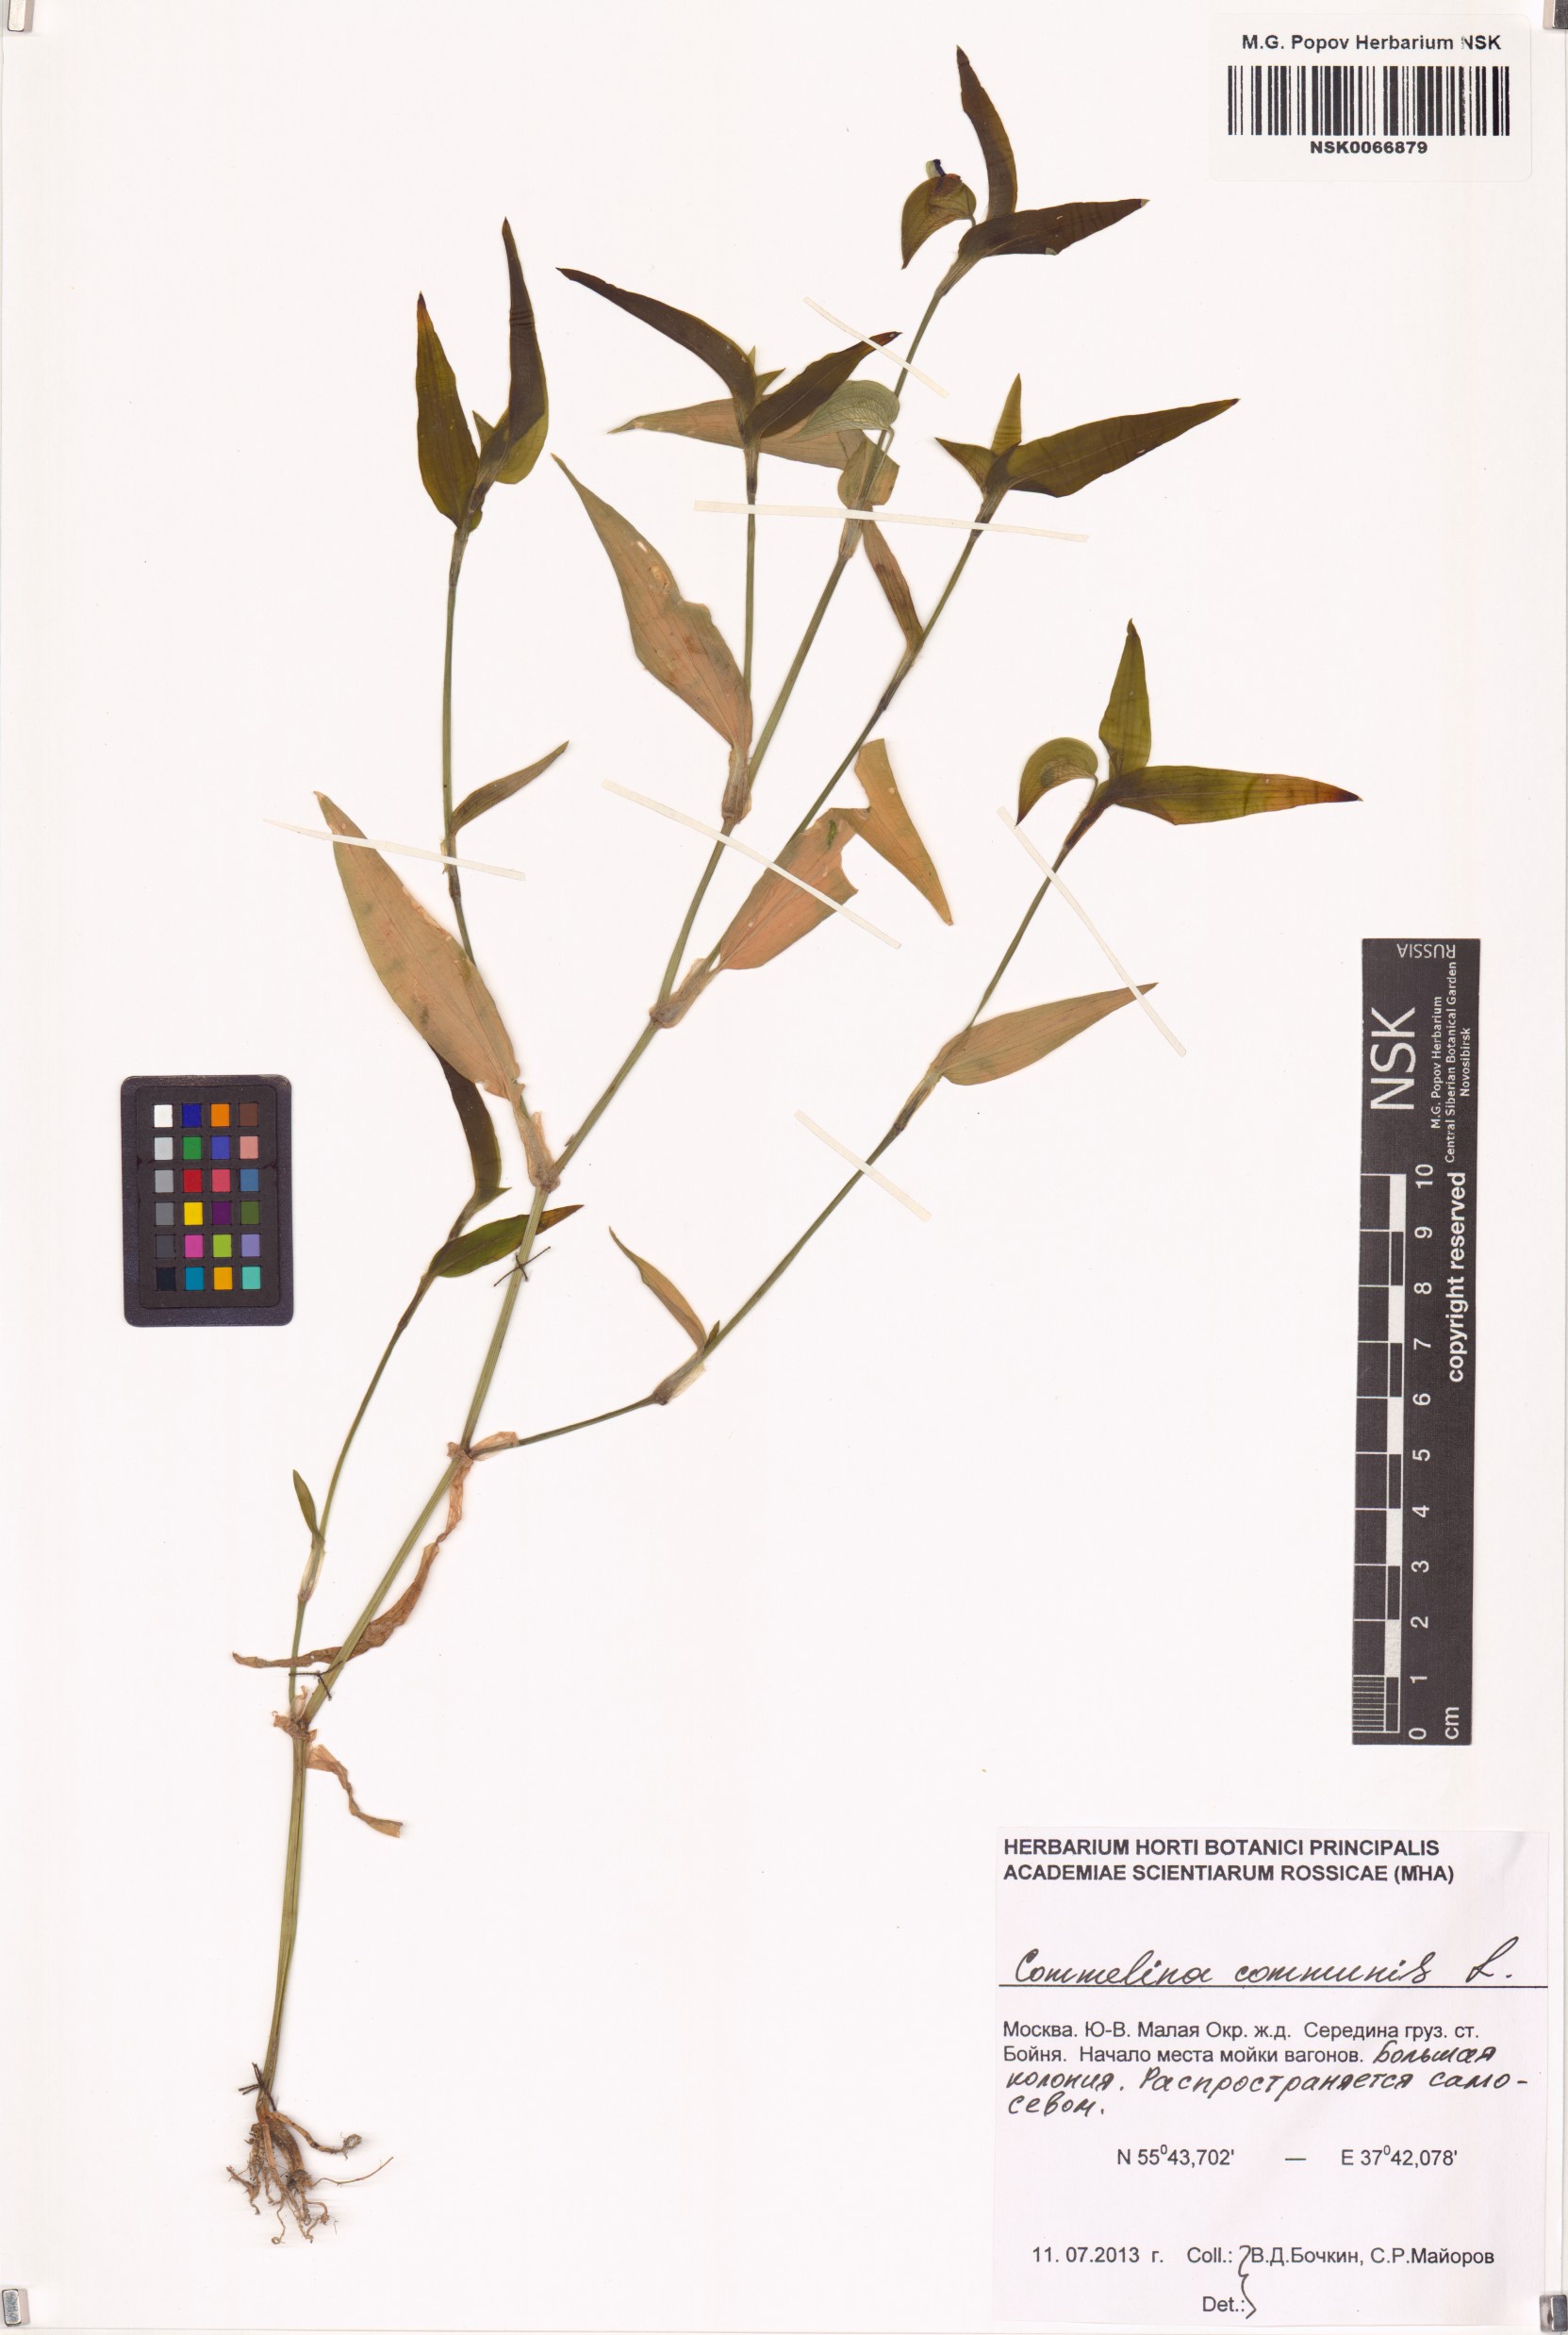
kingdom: Plantae
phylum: Tracheophyta
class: Liliopsida
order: Commelinales
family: Commelinaceae
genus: Commelina
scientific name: Commelina communis
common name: Asiatic dayflower
